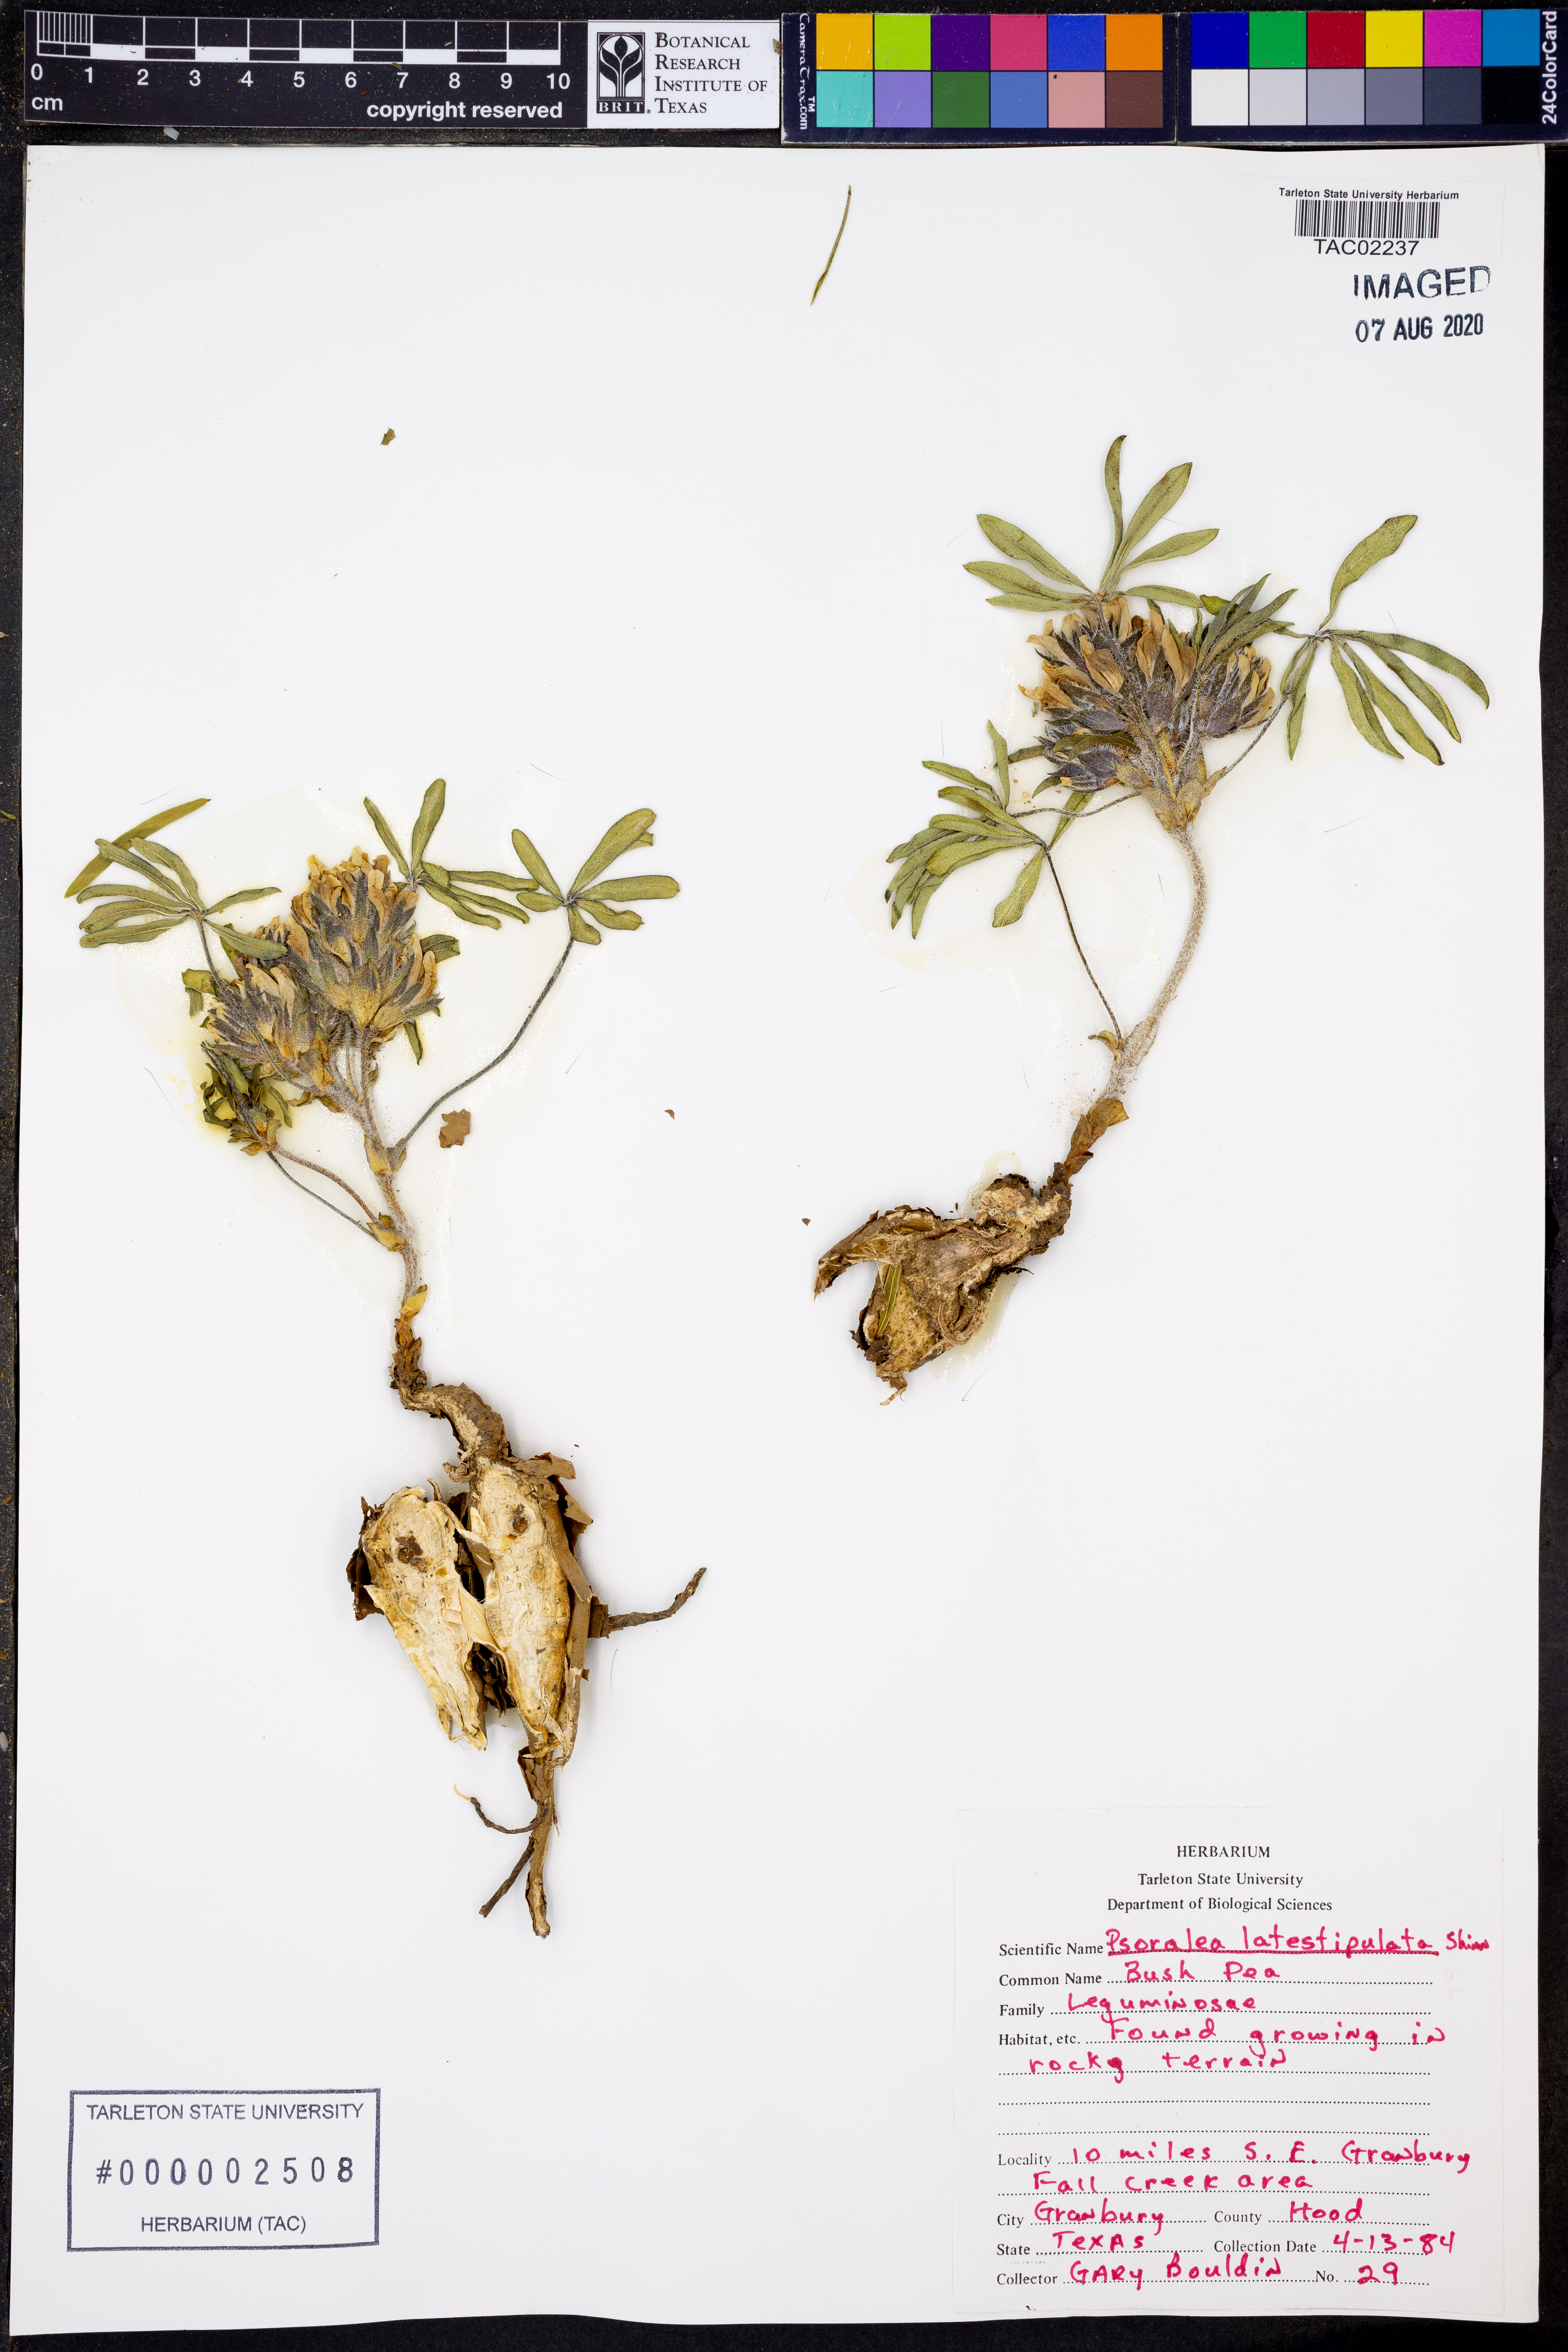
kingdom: Plantae
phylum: Tracheophyta
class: Magnoliopsida
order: Fabales
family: Fabaceae
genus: Pediomelum
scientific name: Pediomelum latestipulatum
